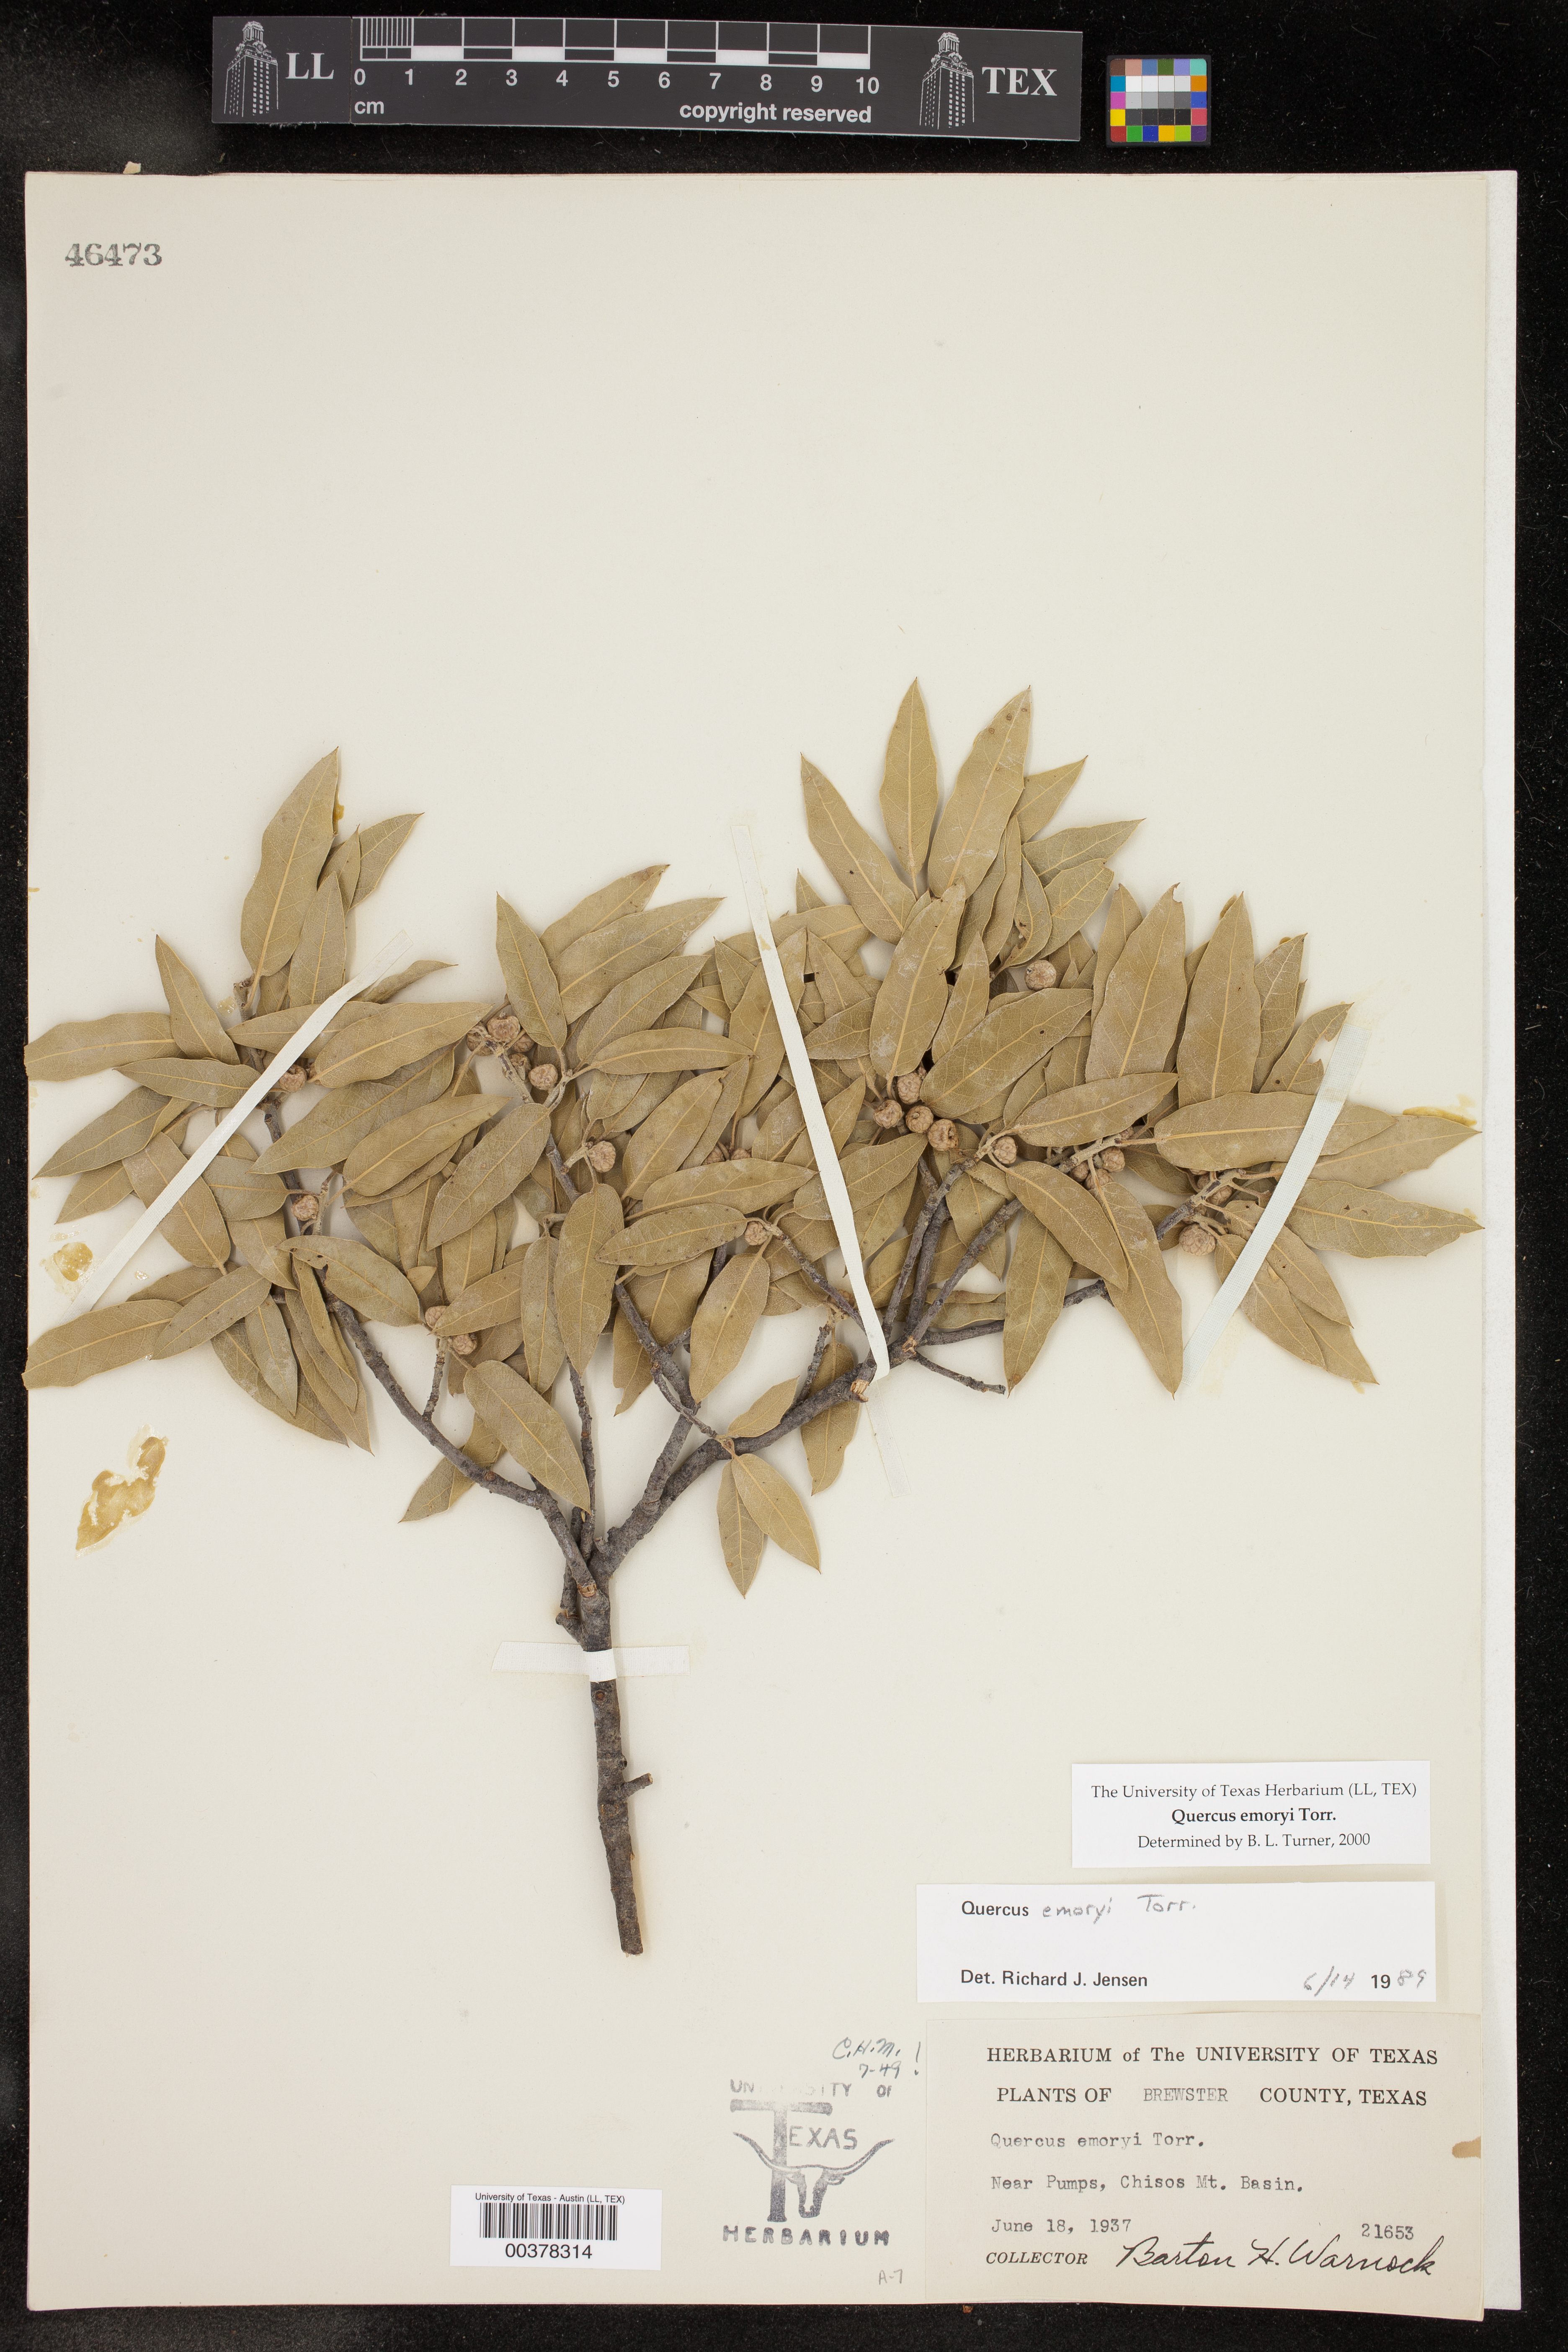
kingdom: Plantae
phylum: Tracheophyta
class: Magnoliopsida
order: Fagales
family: Fagaceae
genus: Quercus
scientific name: Quercus emoryi
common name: Emory oak
